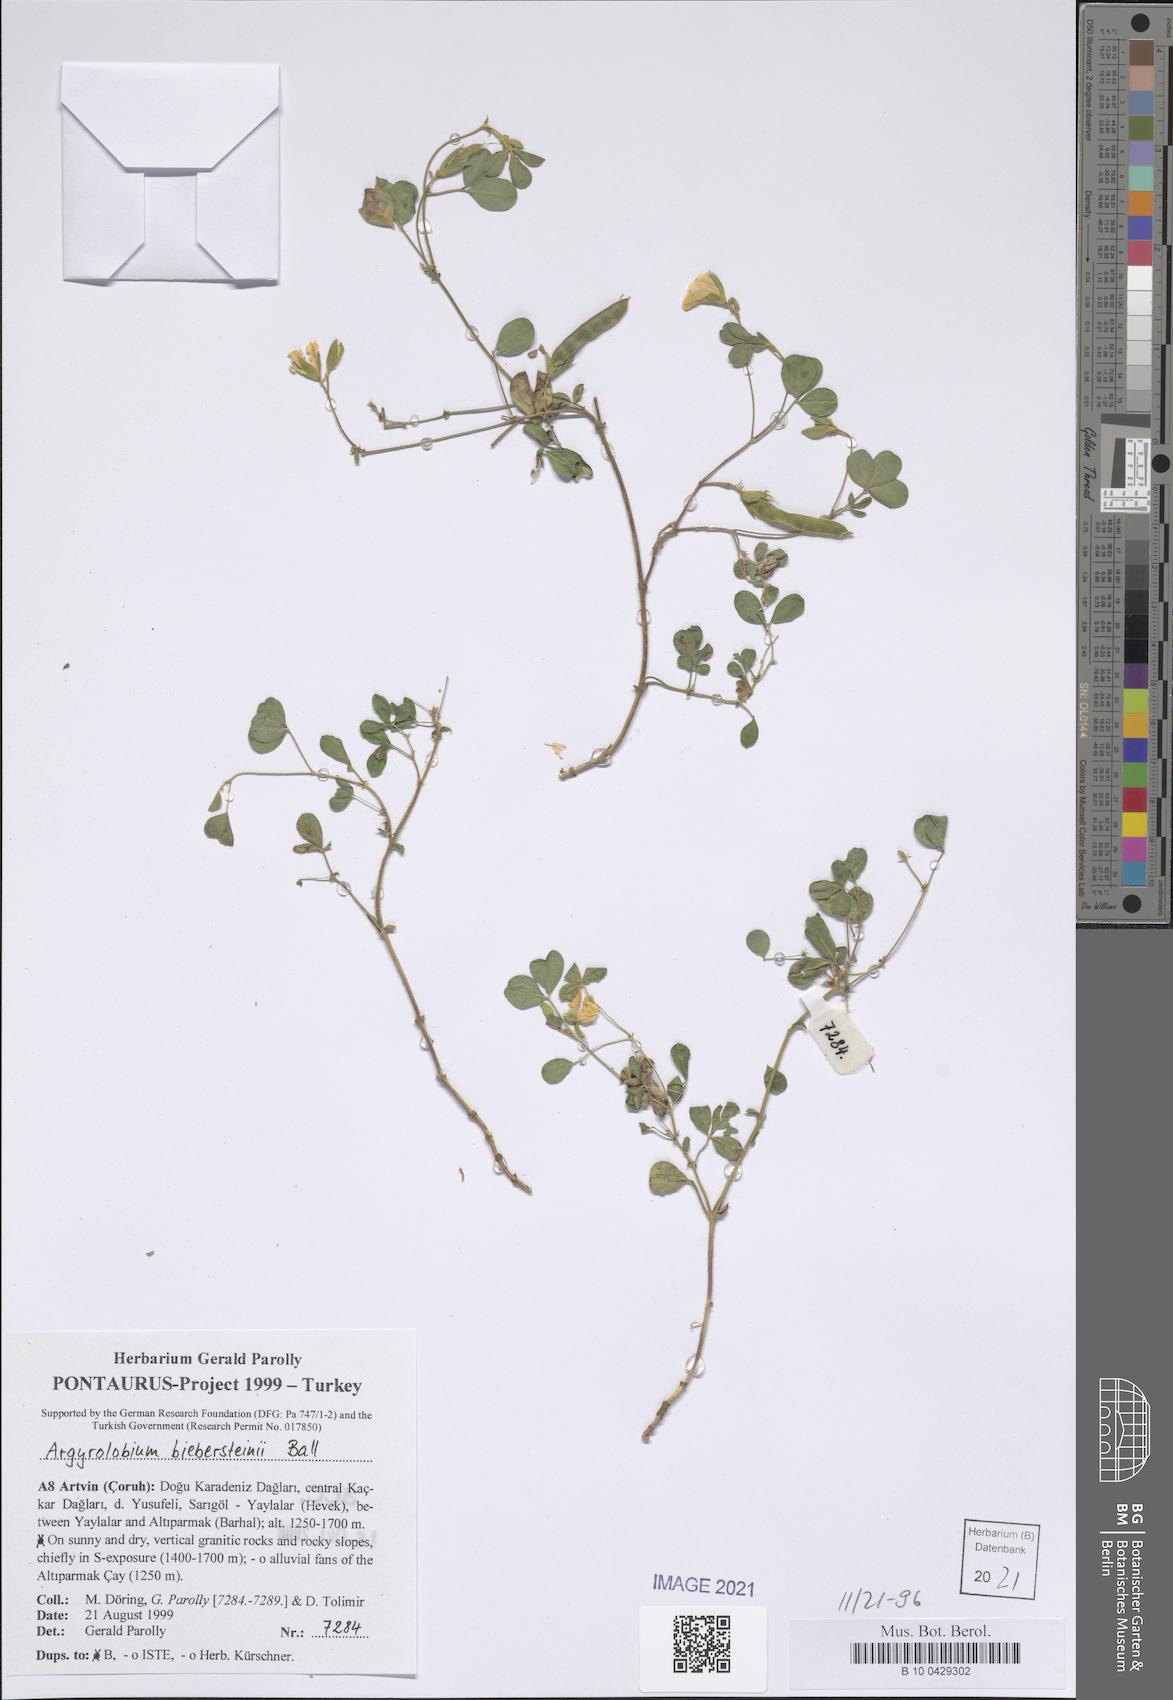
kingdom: Plantae
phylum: Tracheophyta
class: Magnoliopsida
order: Fabales
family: Fabaceae
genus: Argyrolobium
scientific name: Argyrolobium biebersteinii
